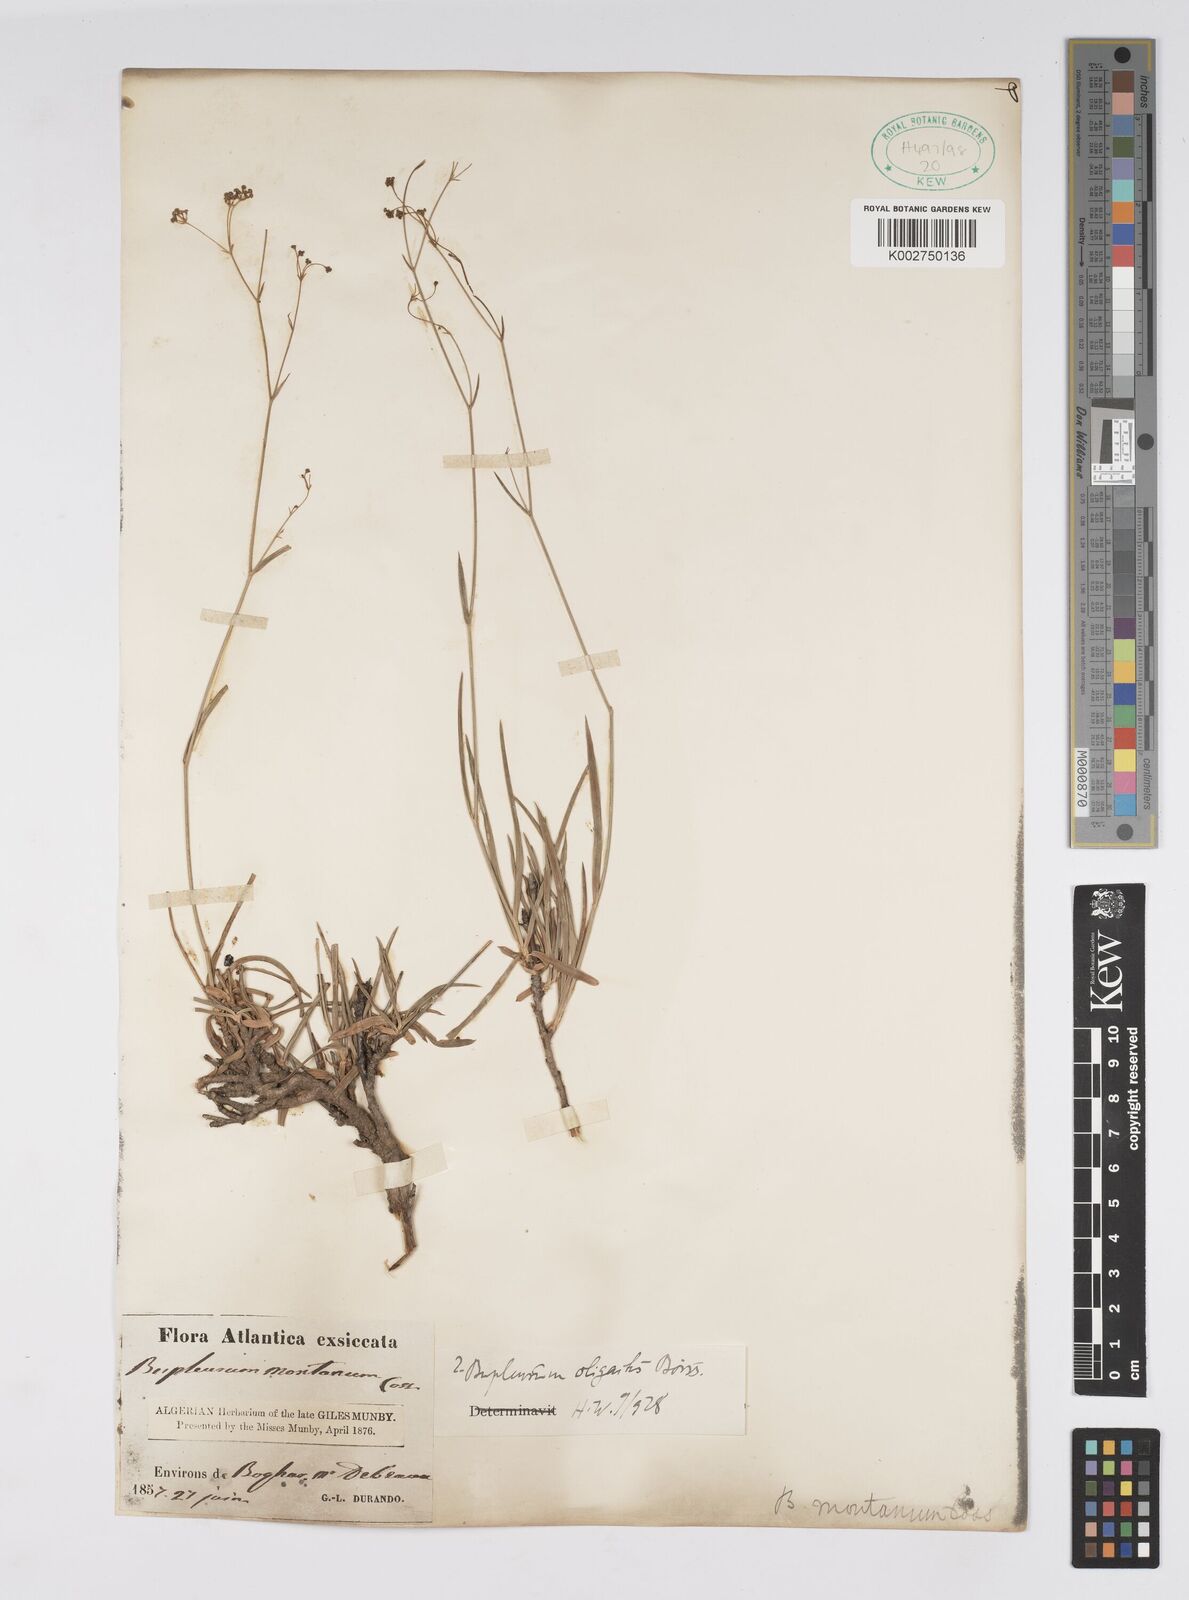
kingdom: Plantae
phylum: Tracheophyta
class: Magnoliopsida
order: Apiales
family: Apiaceae
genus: Bupleurum
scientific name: Bupleurum oligactis
